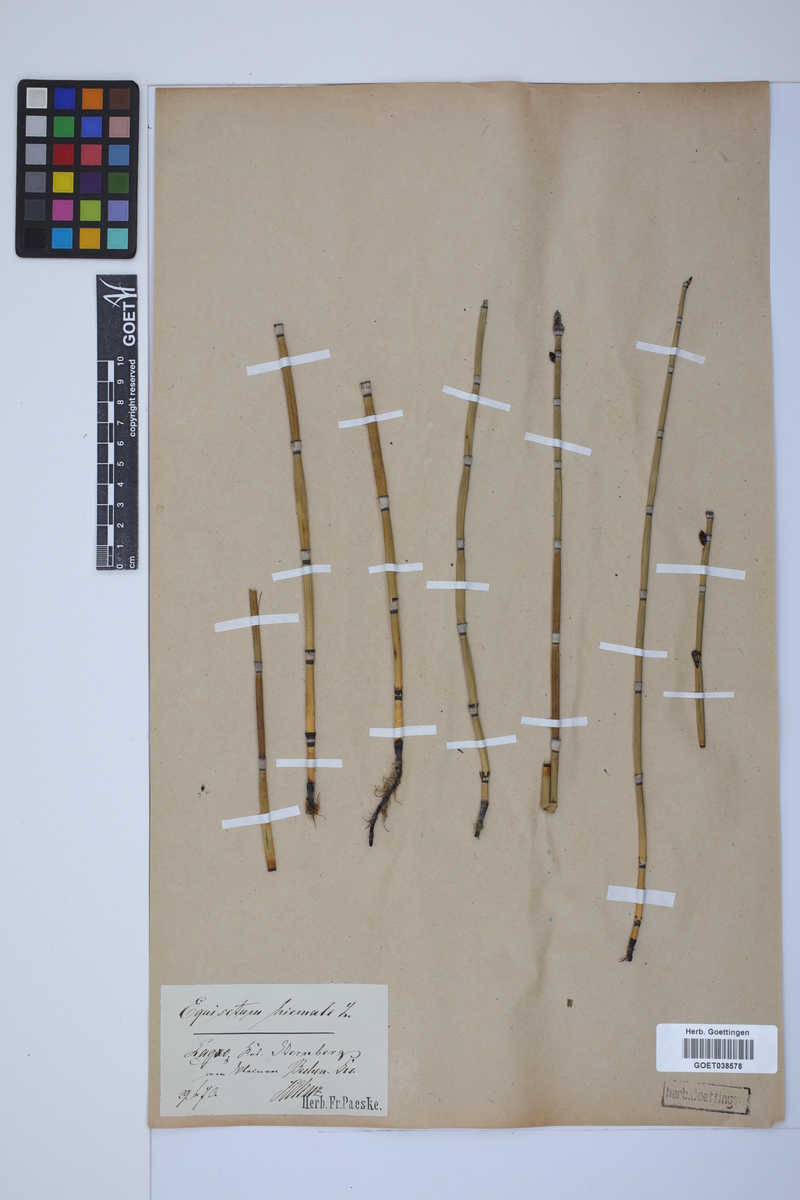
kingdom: Plantae
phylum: Tracheophyta
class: Polypodiopsida
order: Equisetales
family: Equisetaceae
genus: Equisetum
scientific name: Equisetum hyemale
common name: Rough horsetail
